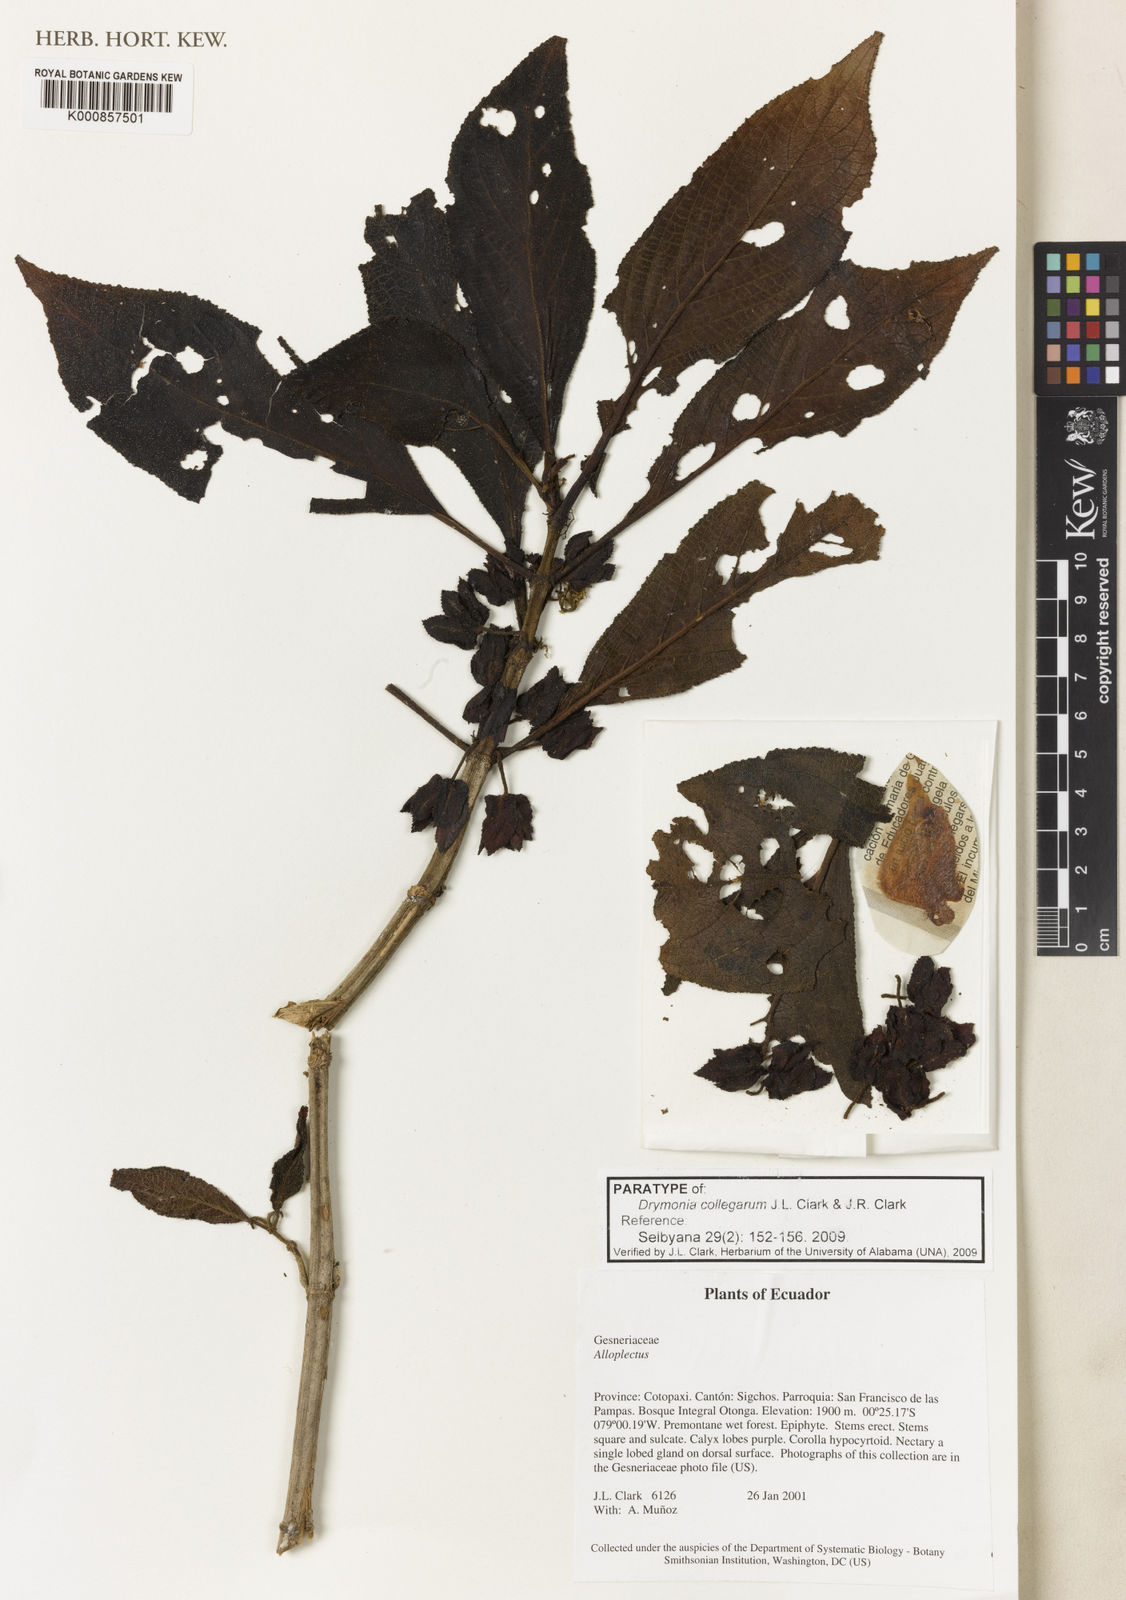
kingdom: Plantae
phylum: Tracheophyta
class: Magnoliopsida
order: Lamiales
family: Gesneriaceae
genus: Drymonia
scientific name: Drymonia collegarum
